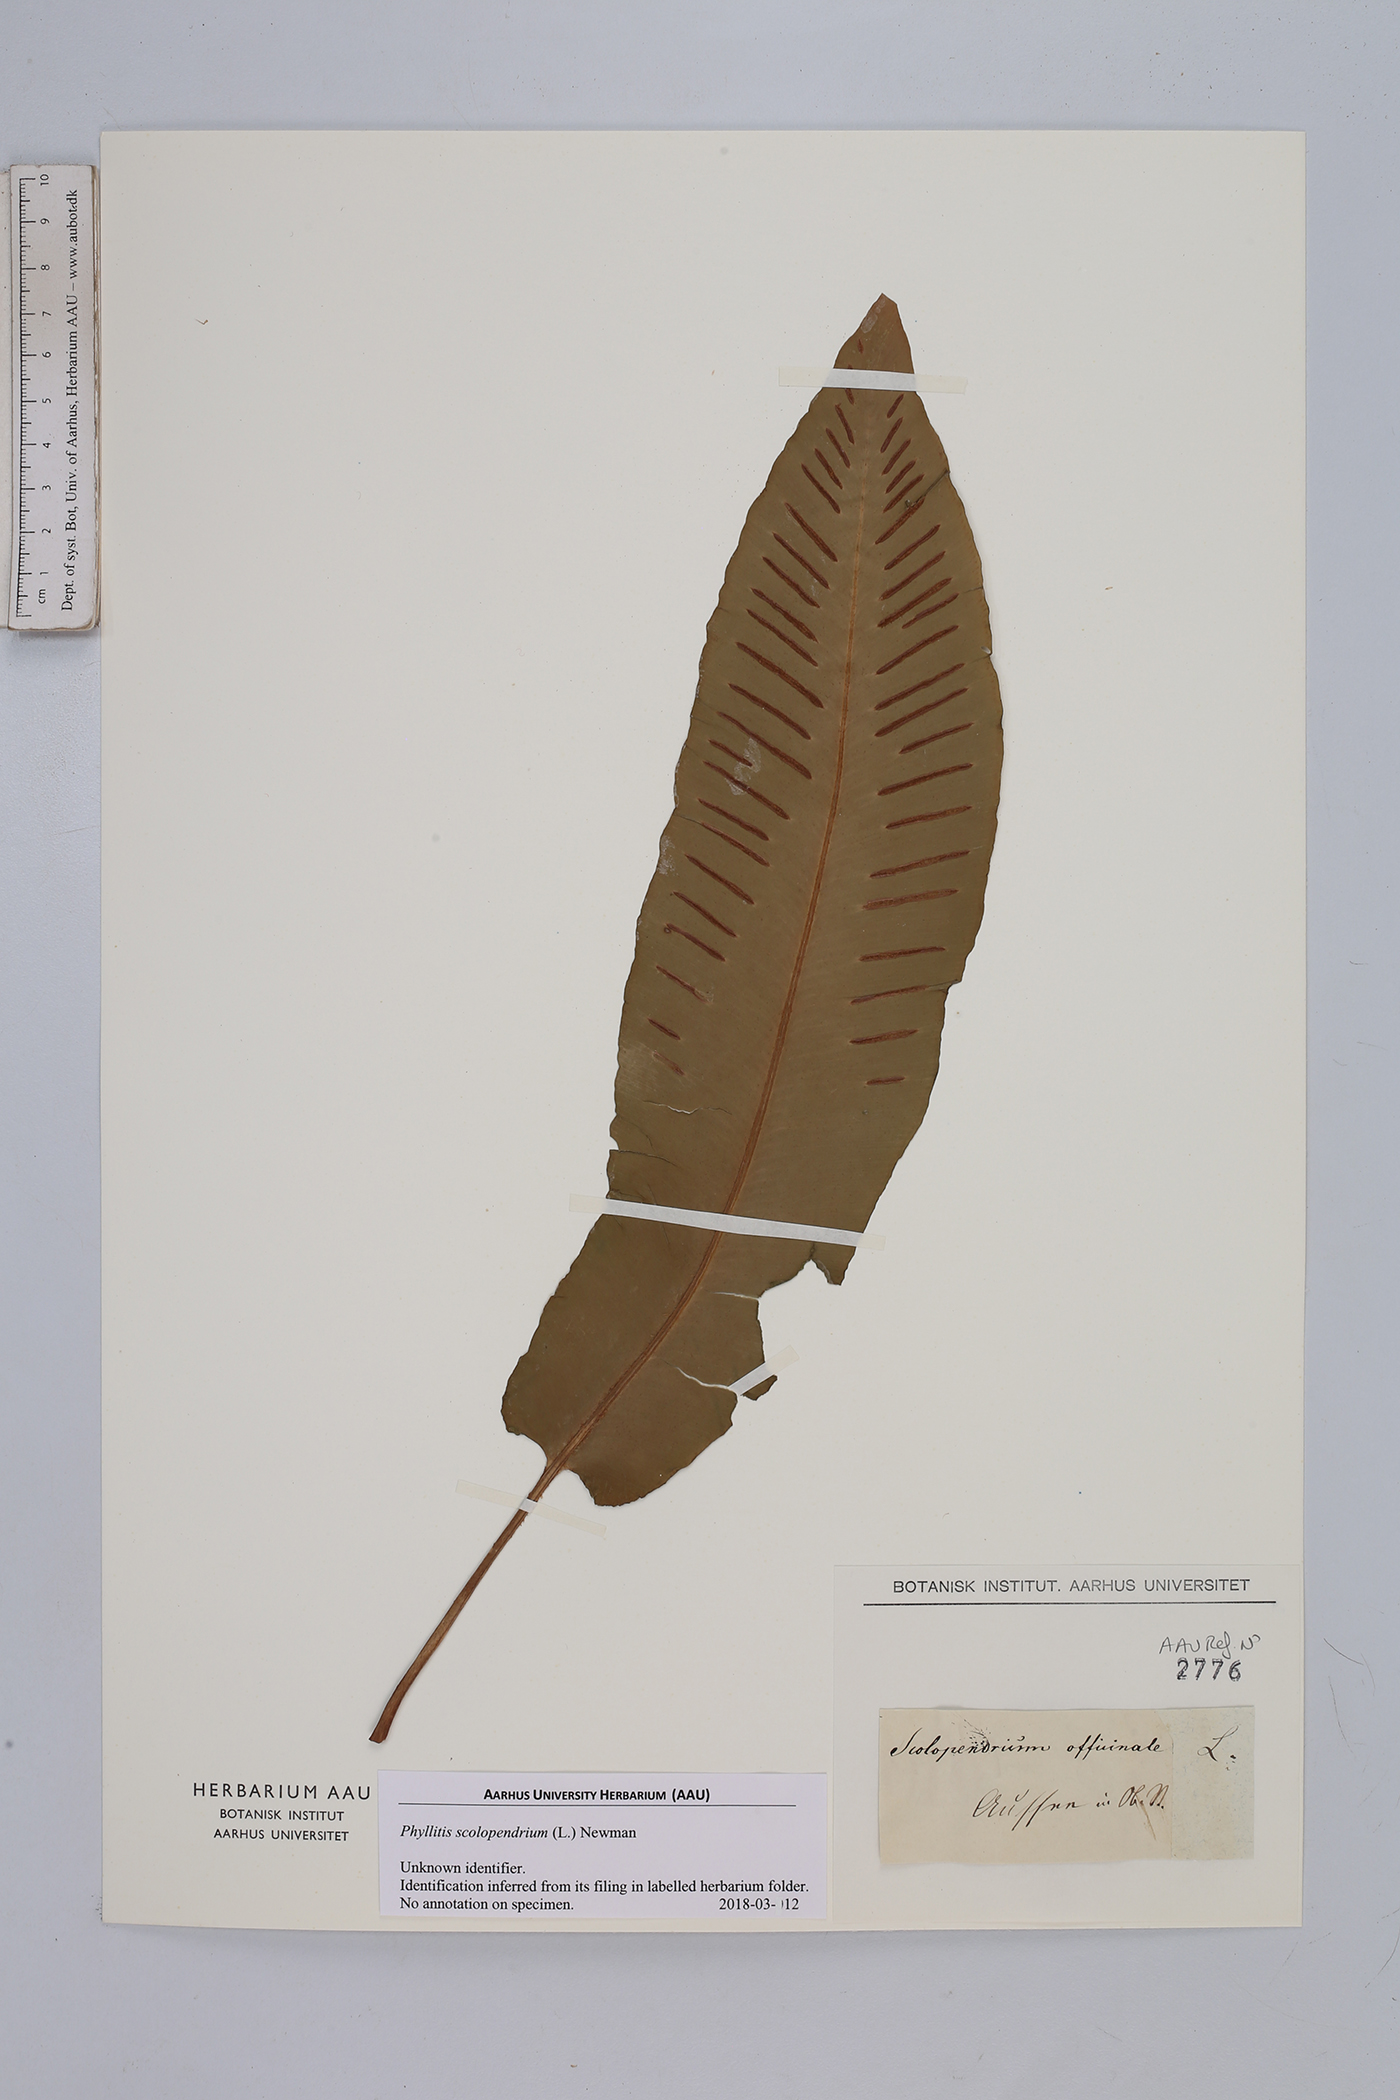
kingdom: Plantae
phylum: Tracheophyta
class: Polypodiopsida
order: Polypodiales
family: Aspleniaceae
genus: Asplenium
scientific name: Asplenium scolopendrium
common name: Hart's-tongue fern
